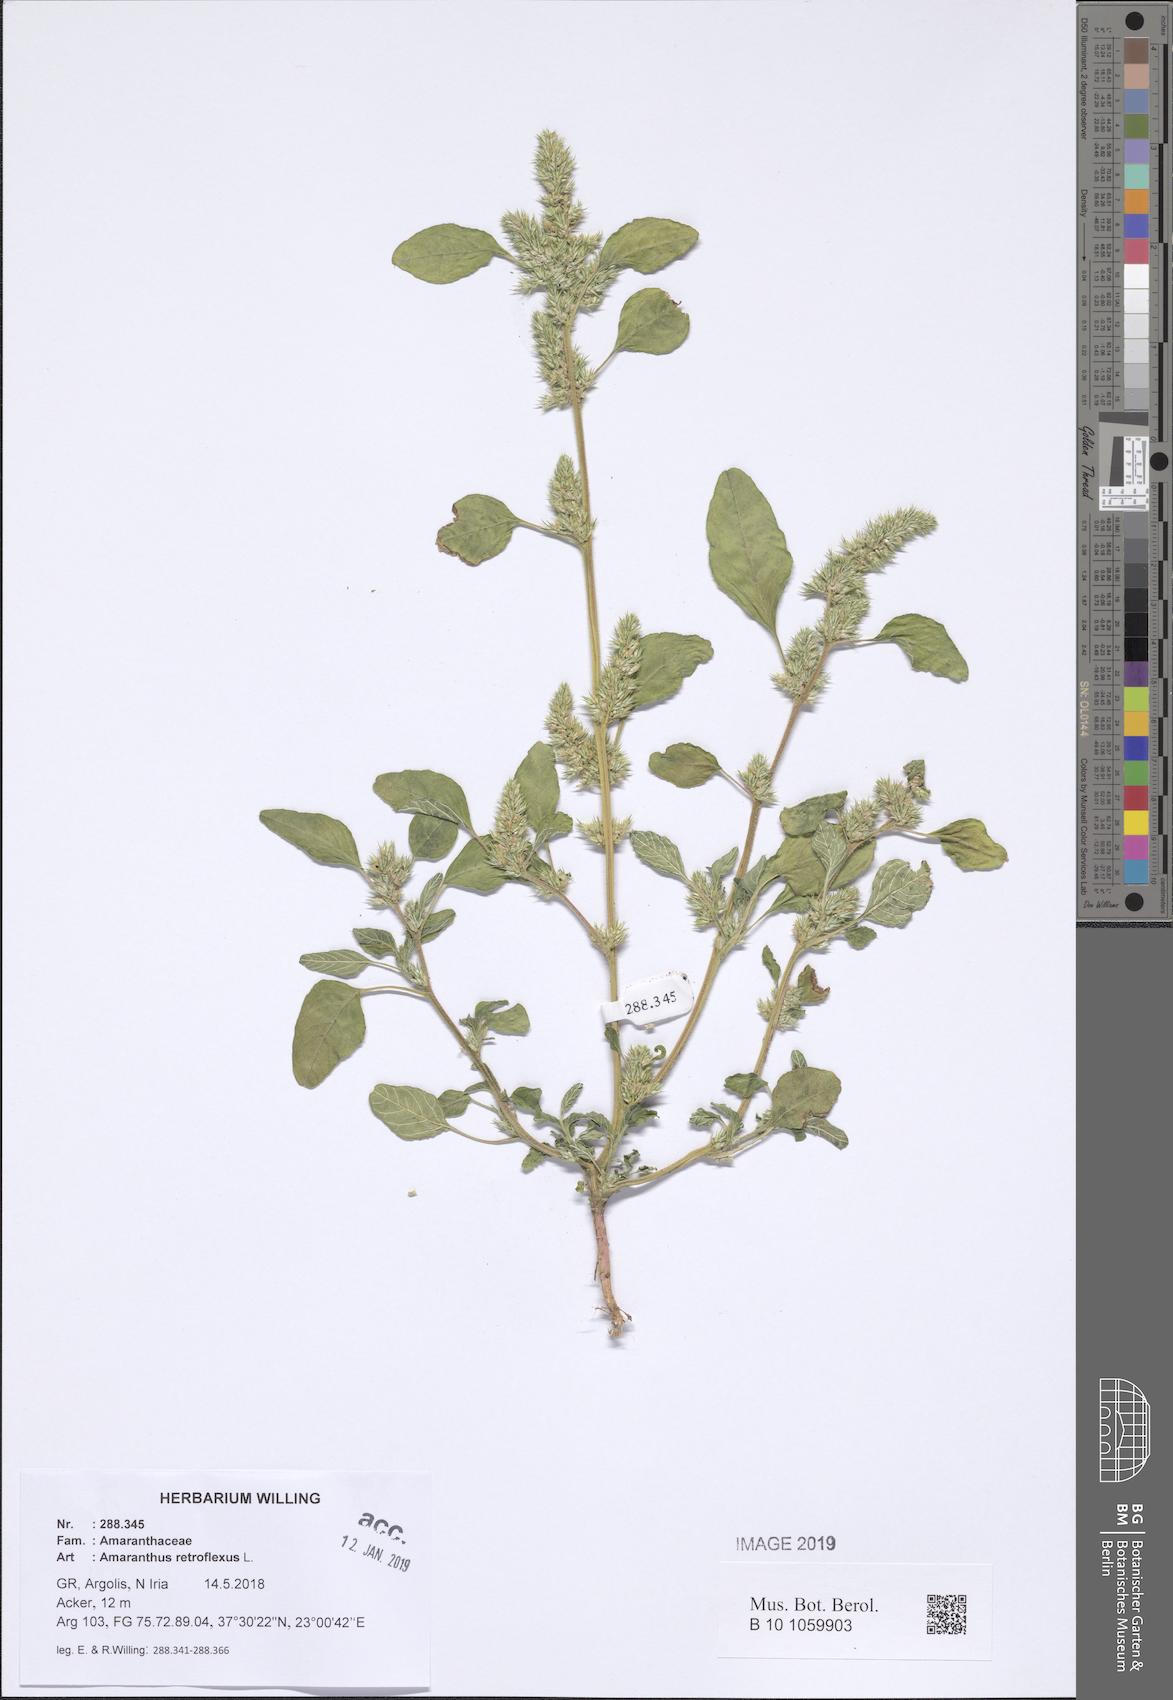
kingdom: Plantae
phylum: Tracheophyta
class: Magnoliopsida
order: Caryophyllales
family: Amaranthaceae
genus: Amaranthus
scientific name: Amaranthus retroflexus
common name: Redroot amaranth
